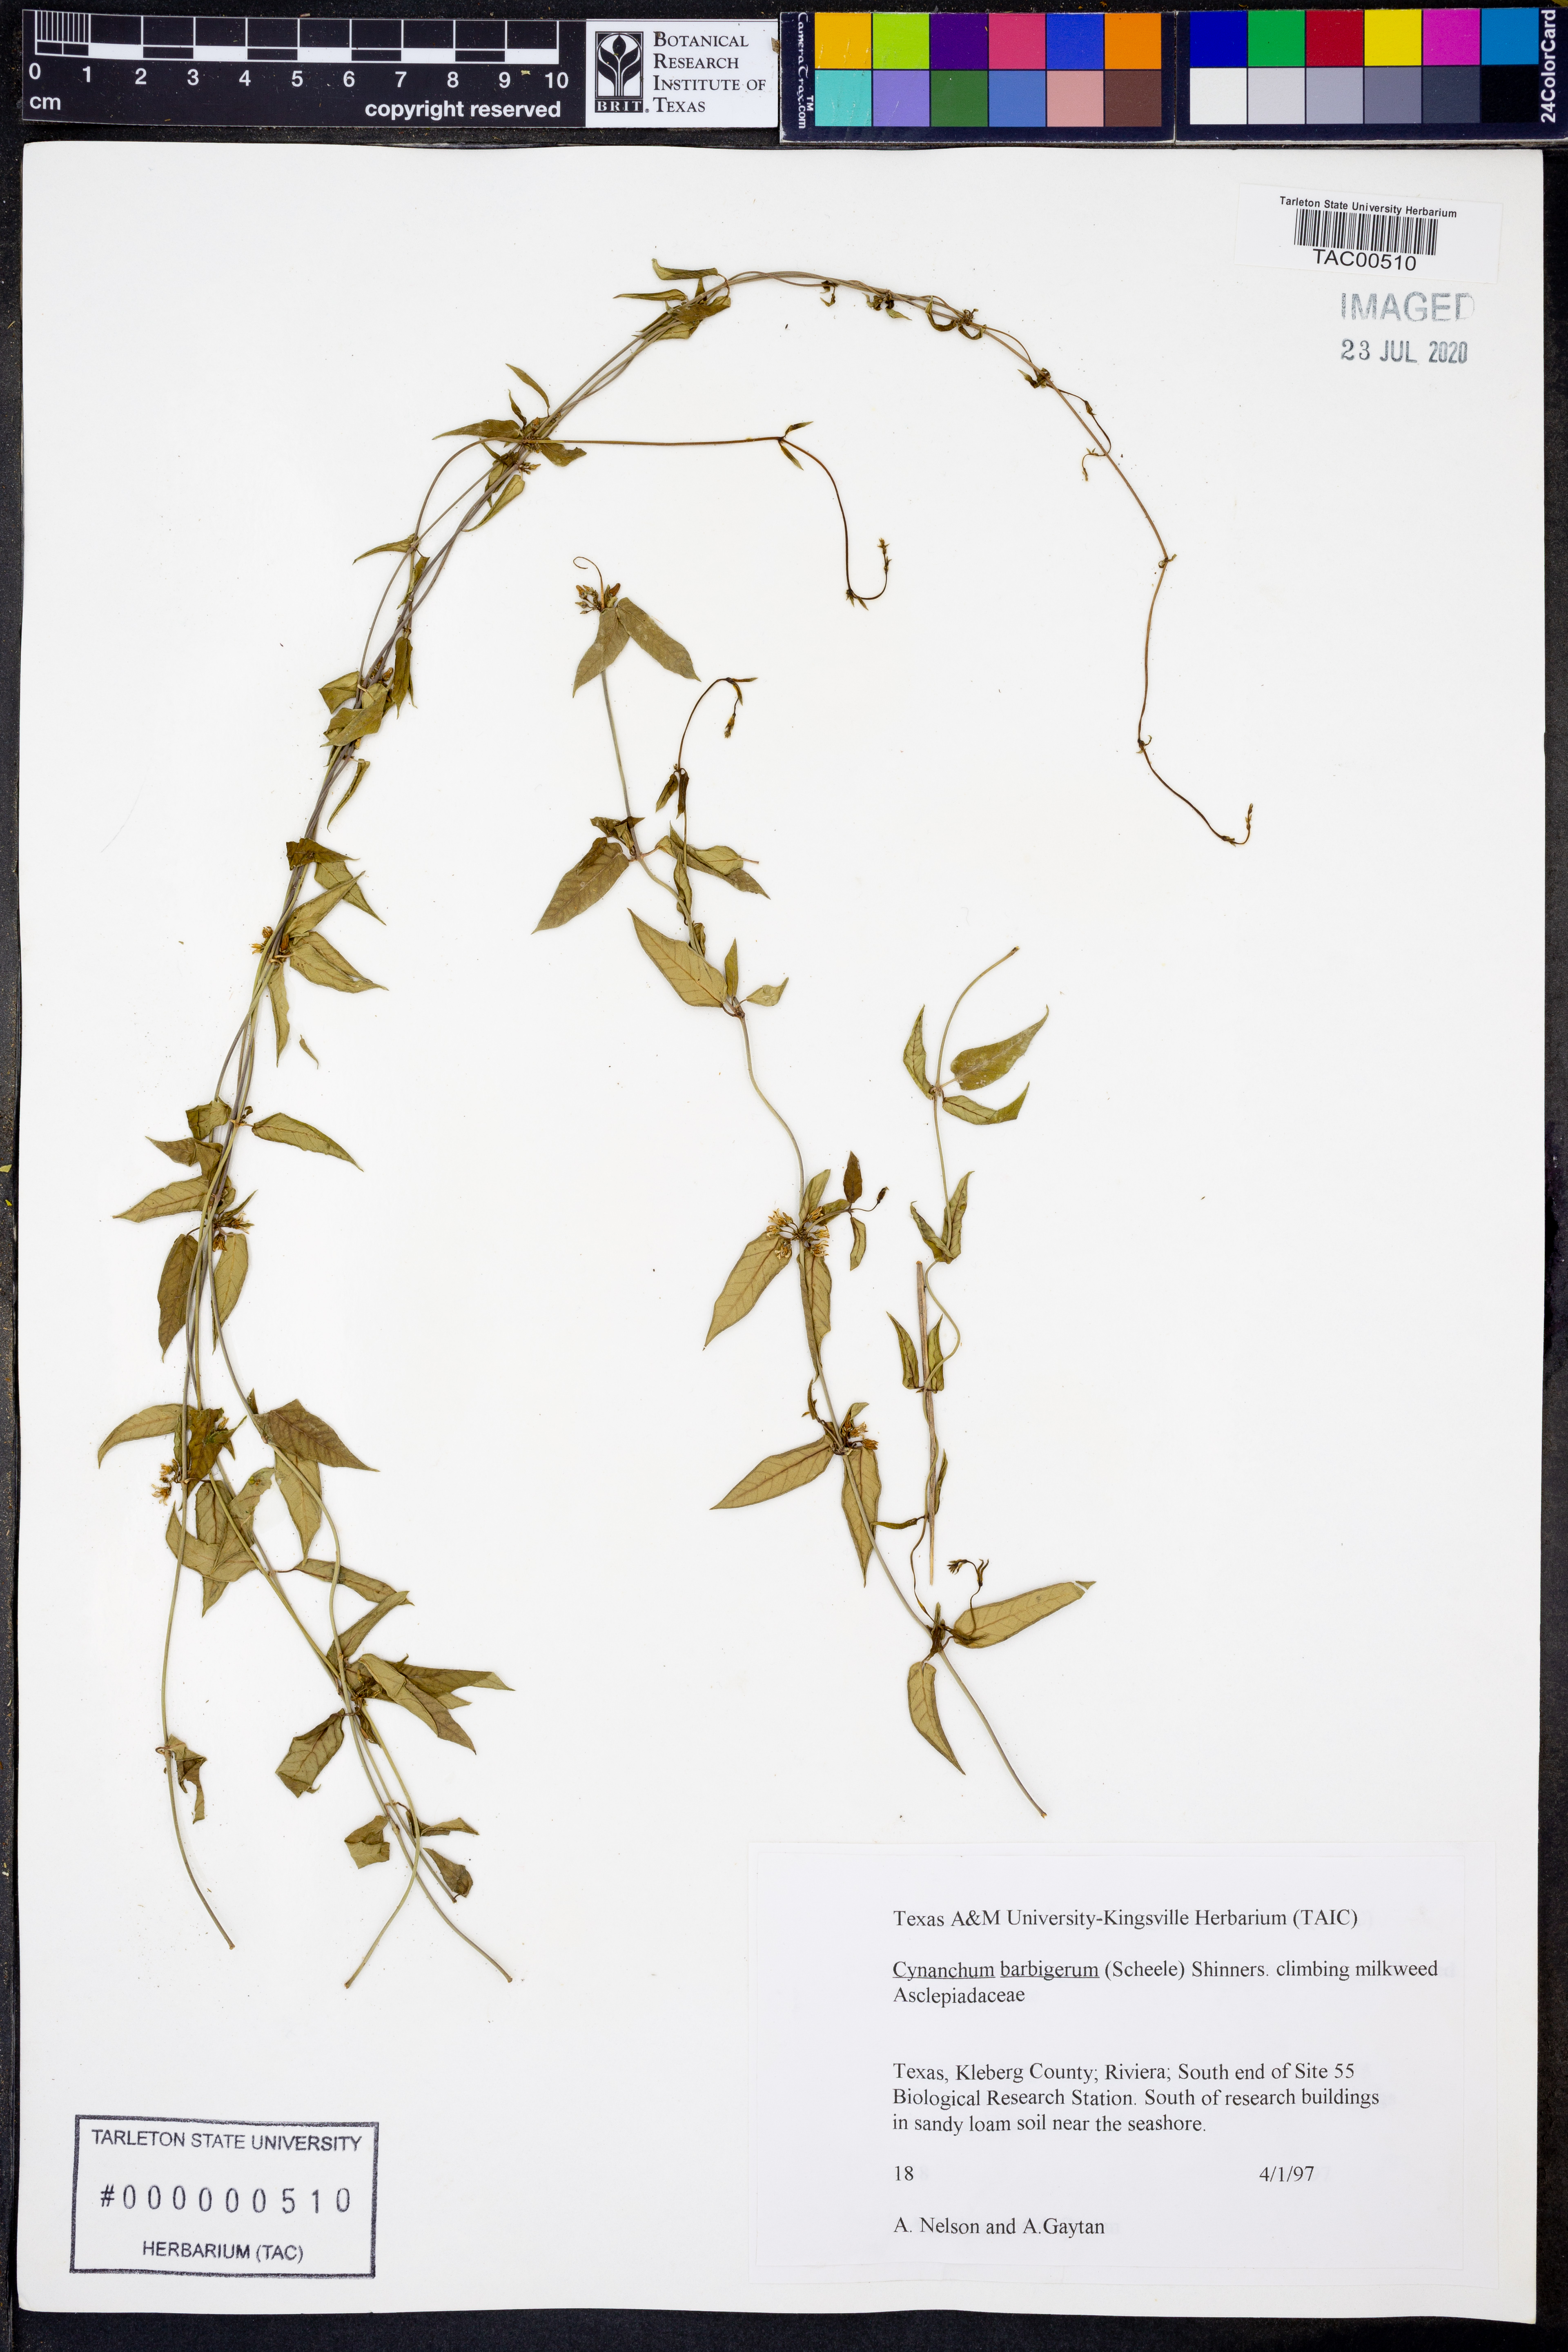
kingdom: Plantae
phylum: Tracheophyta
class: Magnoliopsida
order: Gentianales
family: Apocynaceae
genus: Metastelma
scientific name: Metastelma barbigerum
